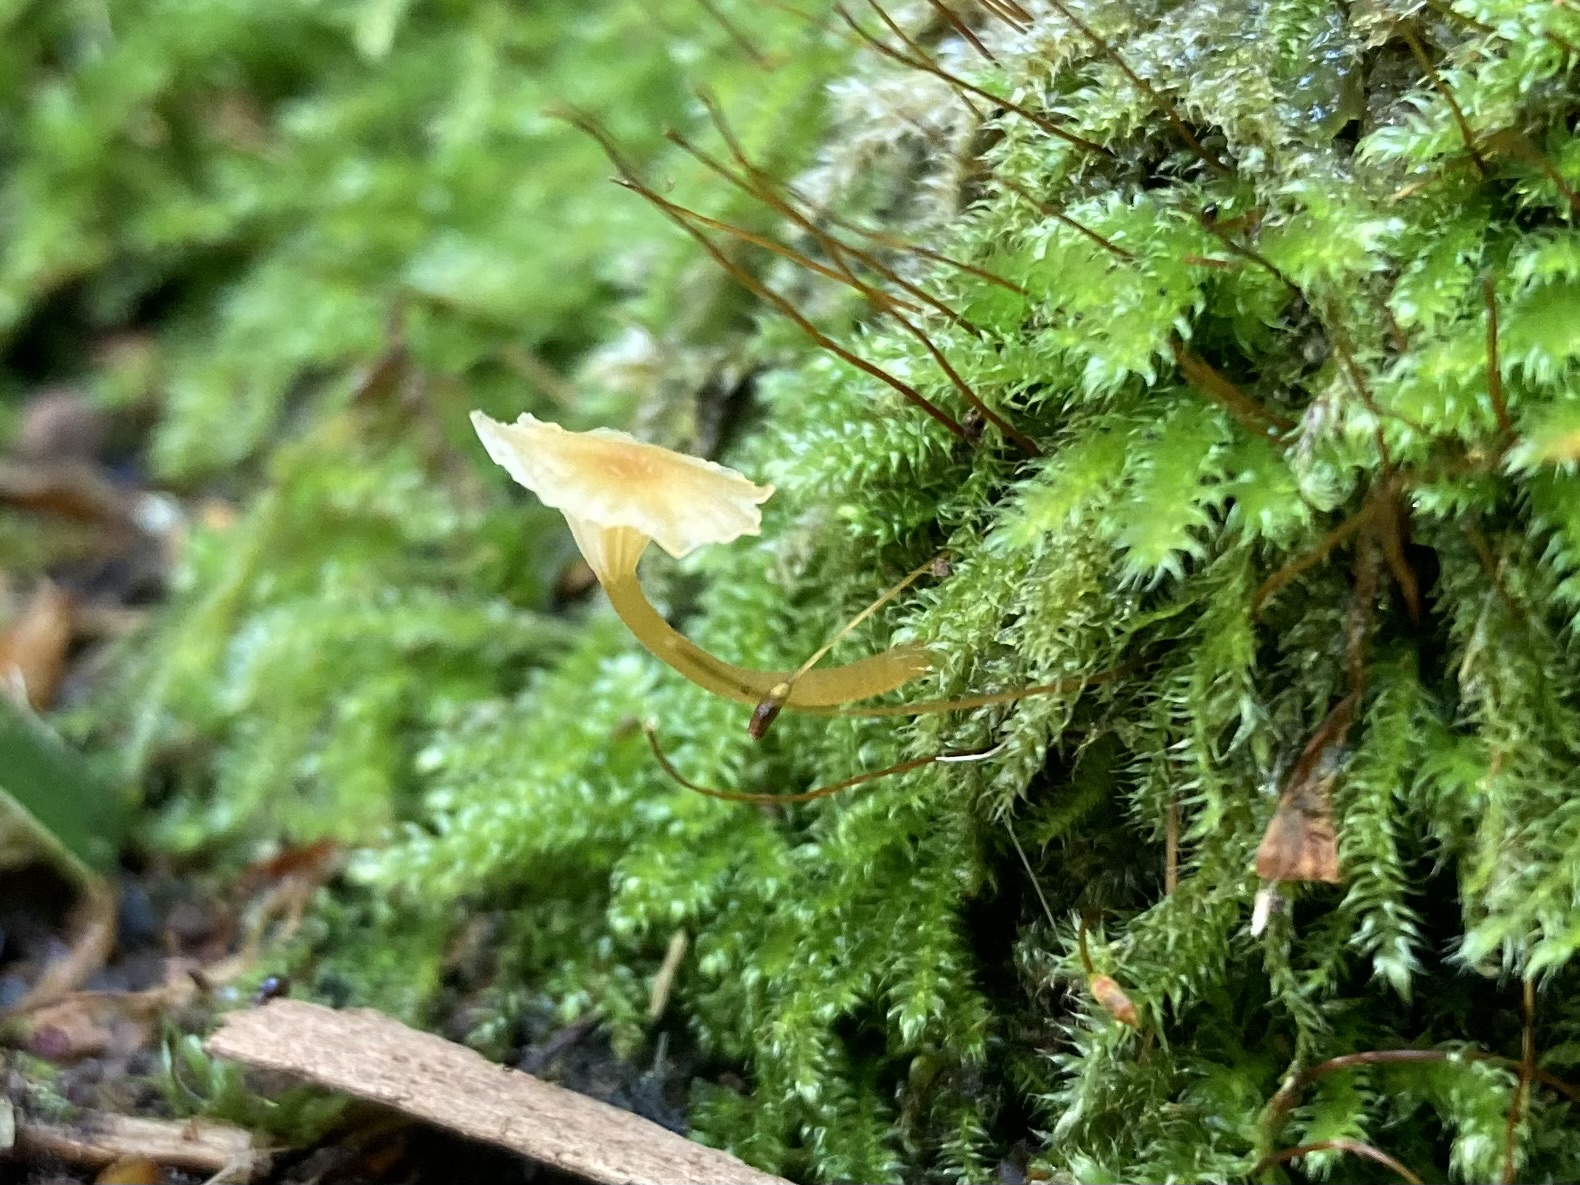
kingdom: Fungi
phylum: Basidiomycota
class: Agaricomycetes
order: Hymenochaetales
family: Rickenellaceae
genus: Rickenella
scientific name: Rickenella fibula
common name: orange mosnavlehat
